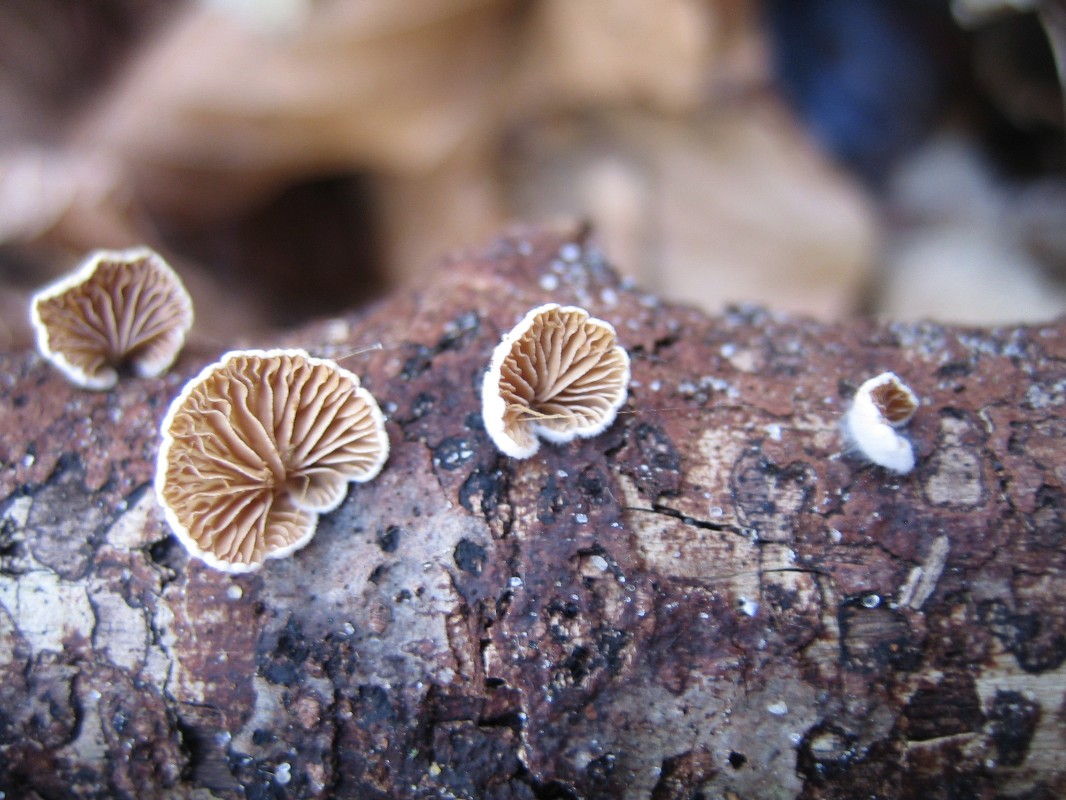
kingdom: Fungi
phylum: Basidiomycota
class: Agaricomycetes
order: Agaricales
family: Crepidotaceae
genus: Crepidotus
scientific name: Crepidotus
